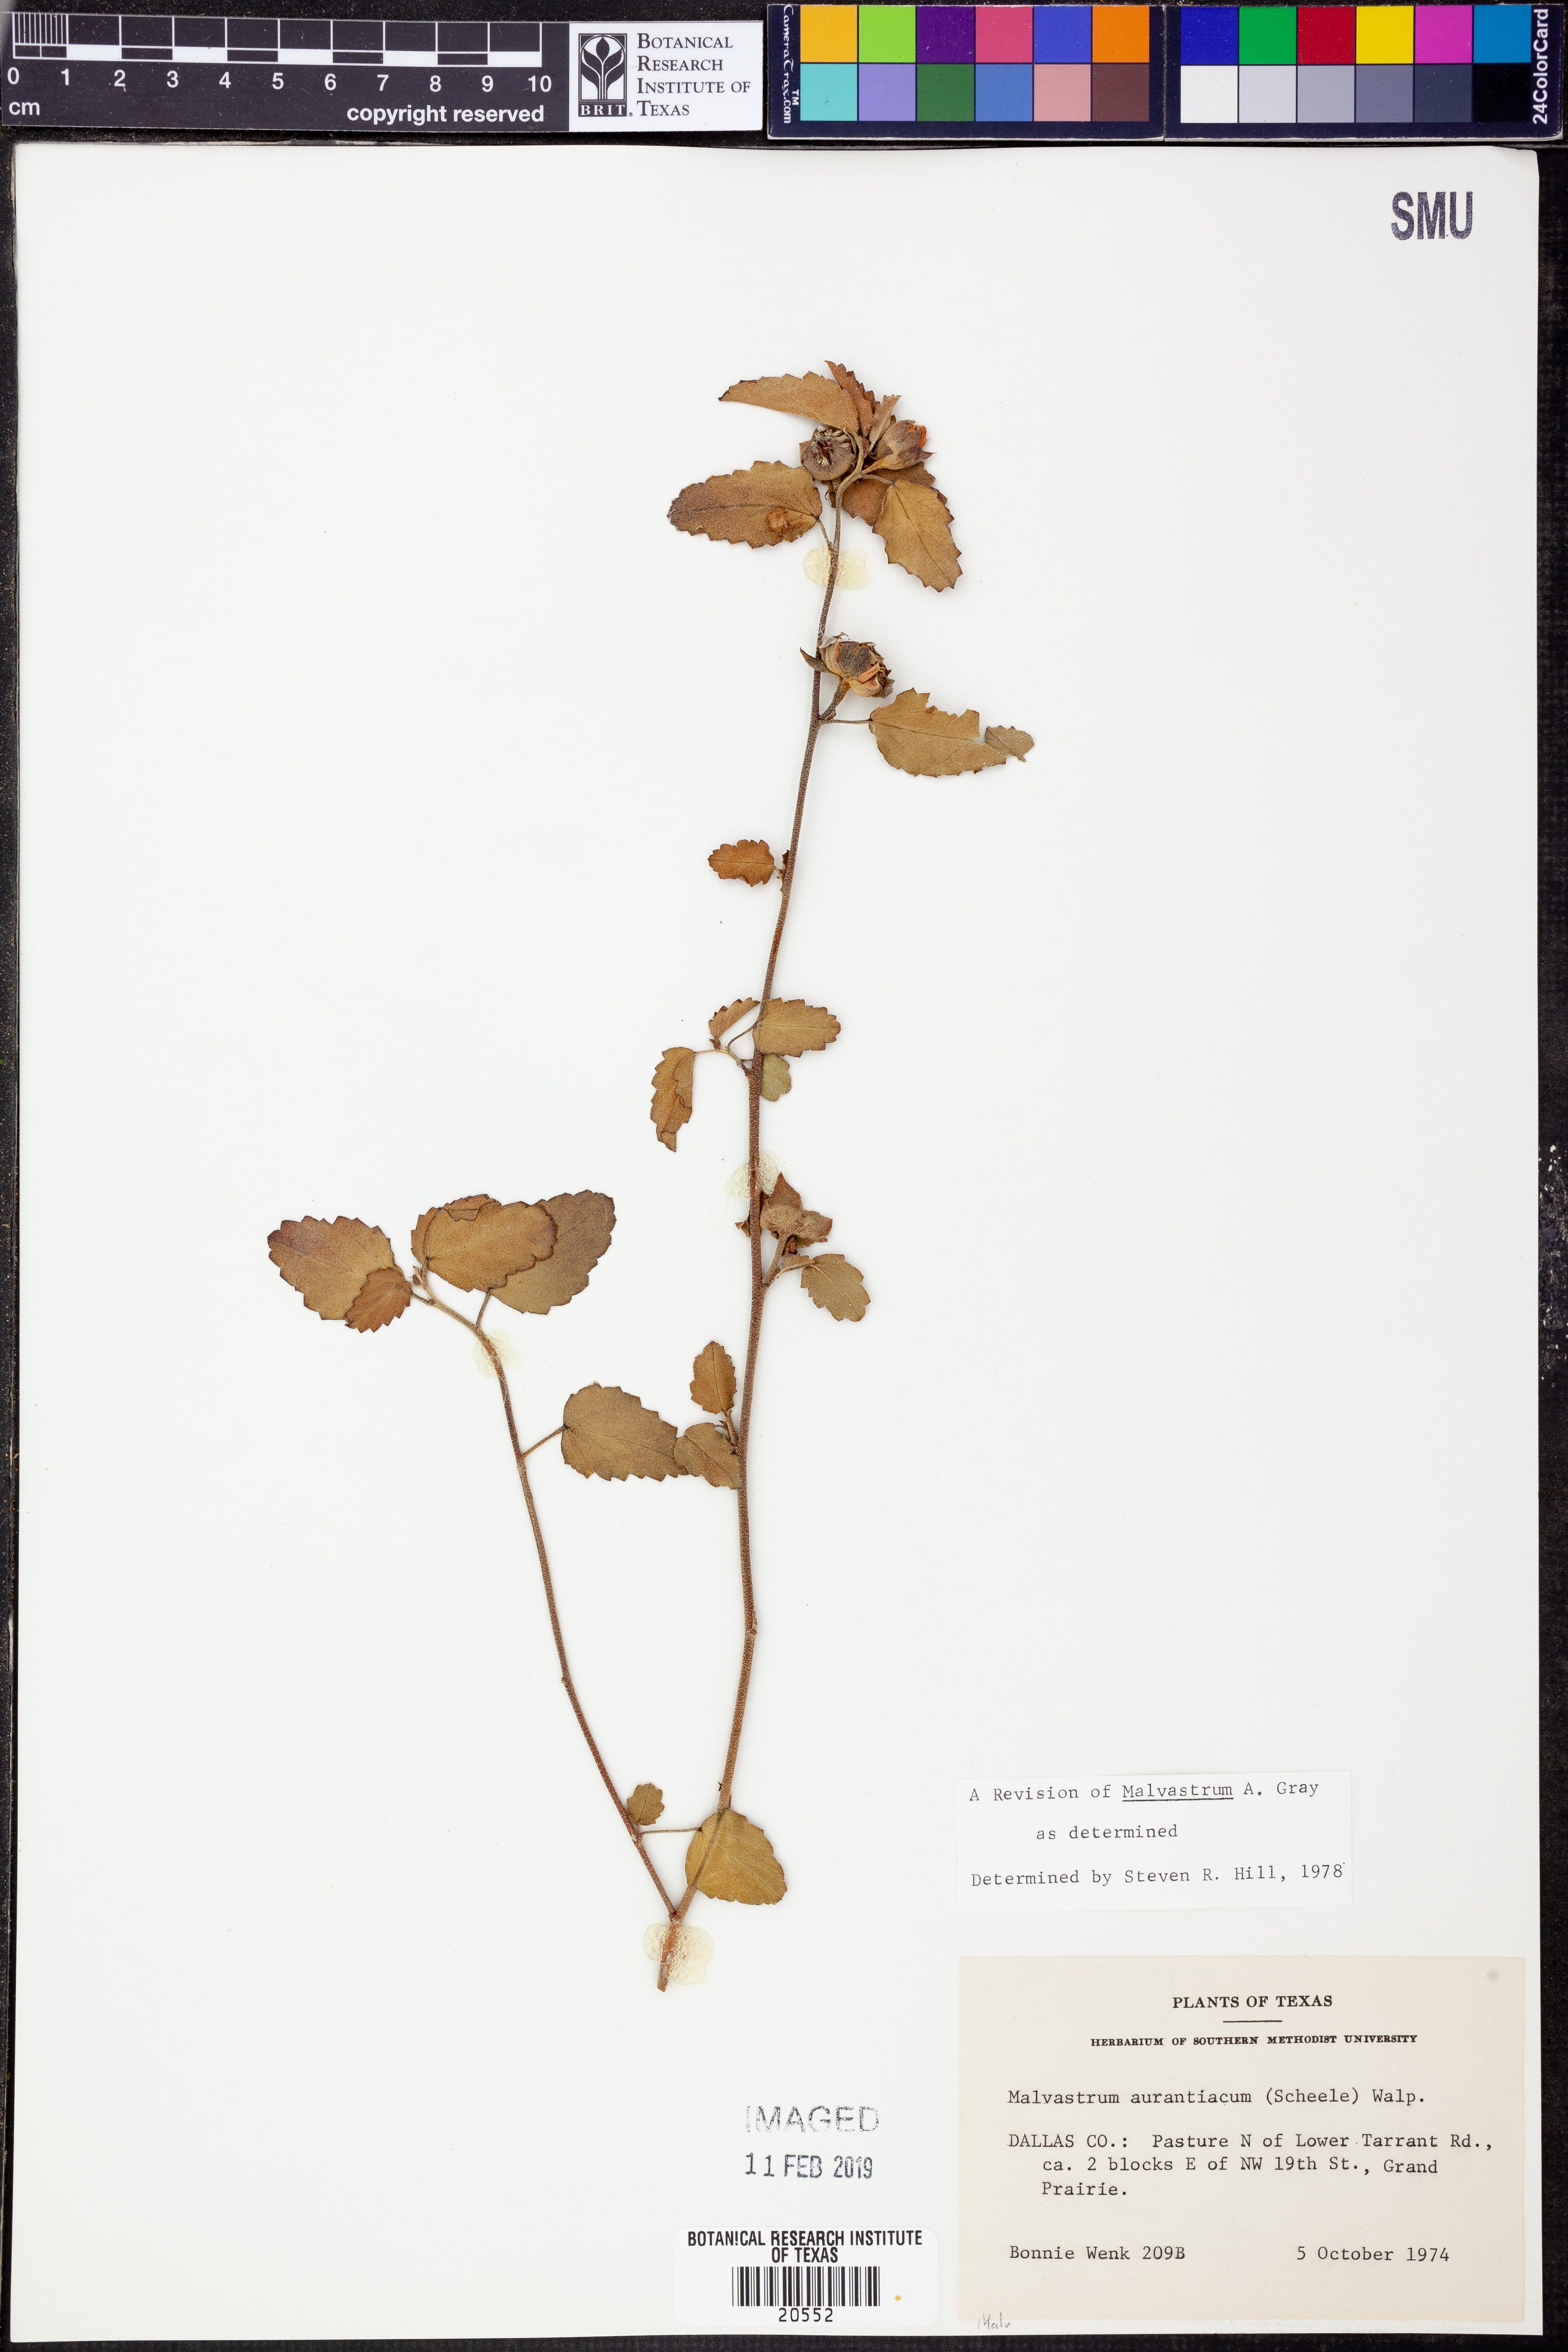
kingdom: Plantae
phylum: Tracheophyta
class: Magnoliopsida
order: Malvales
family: Malvaceae
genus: Malvastrum
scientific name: Malvastrum aurantiacum
